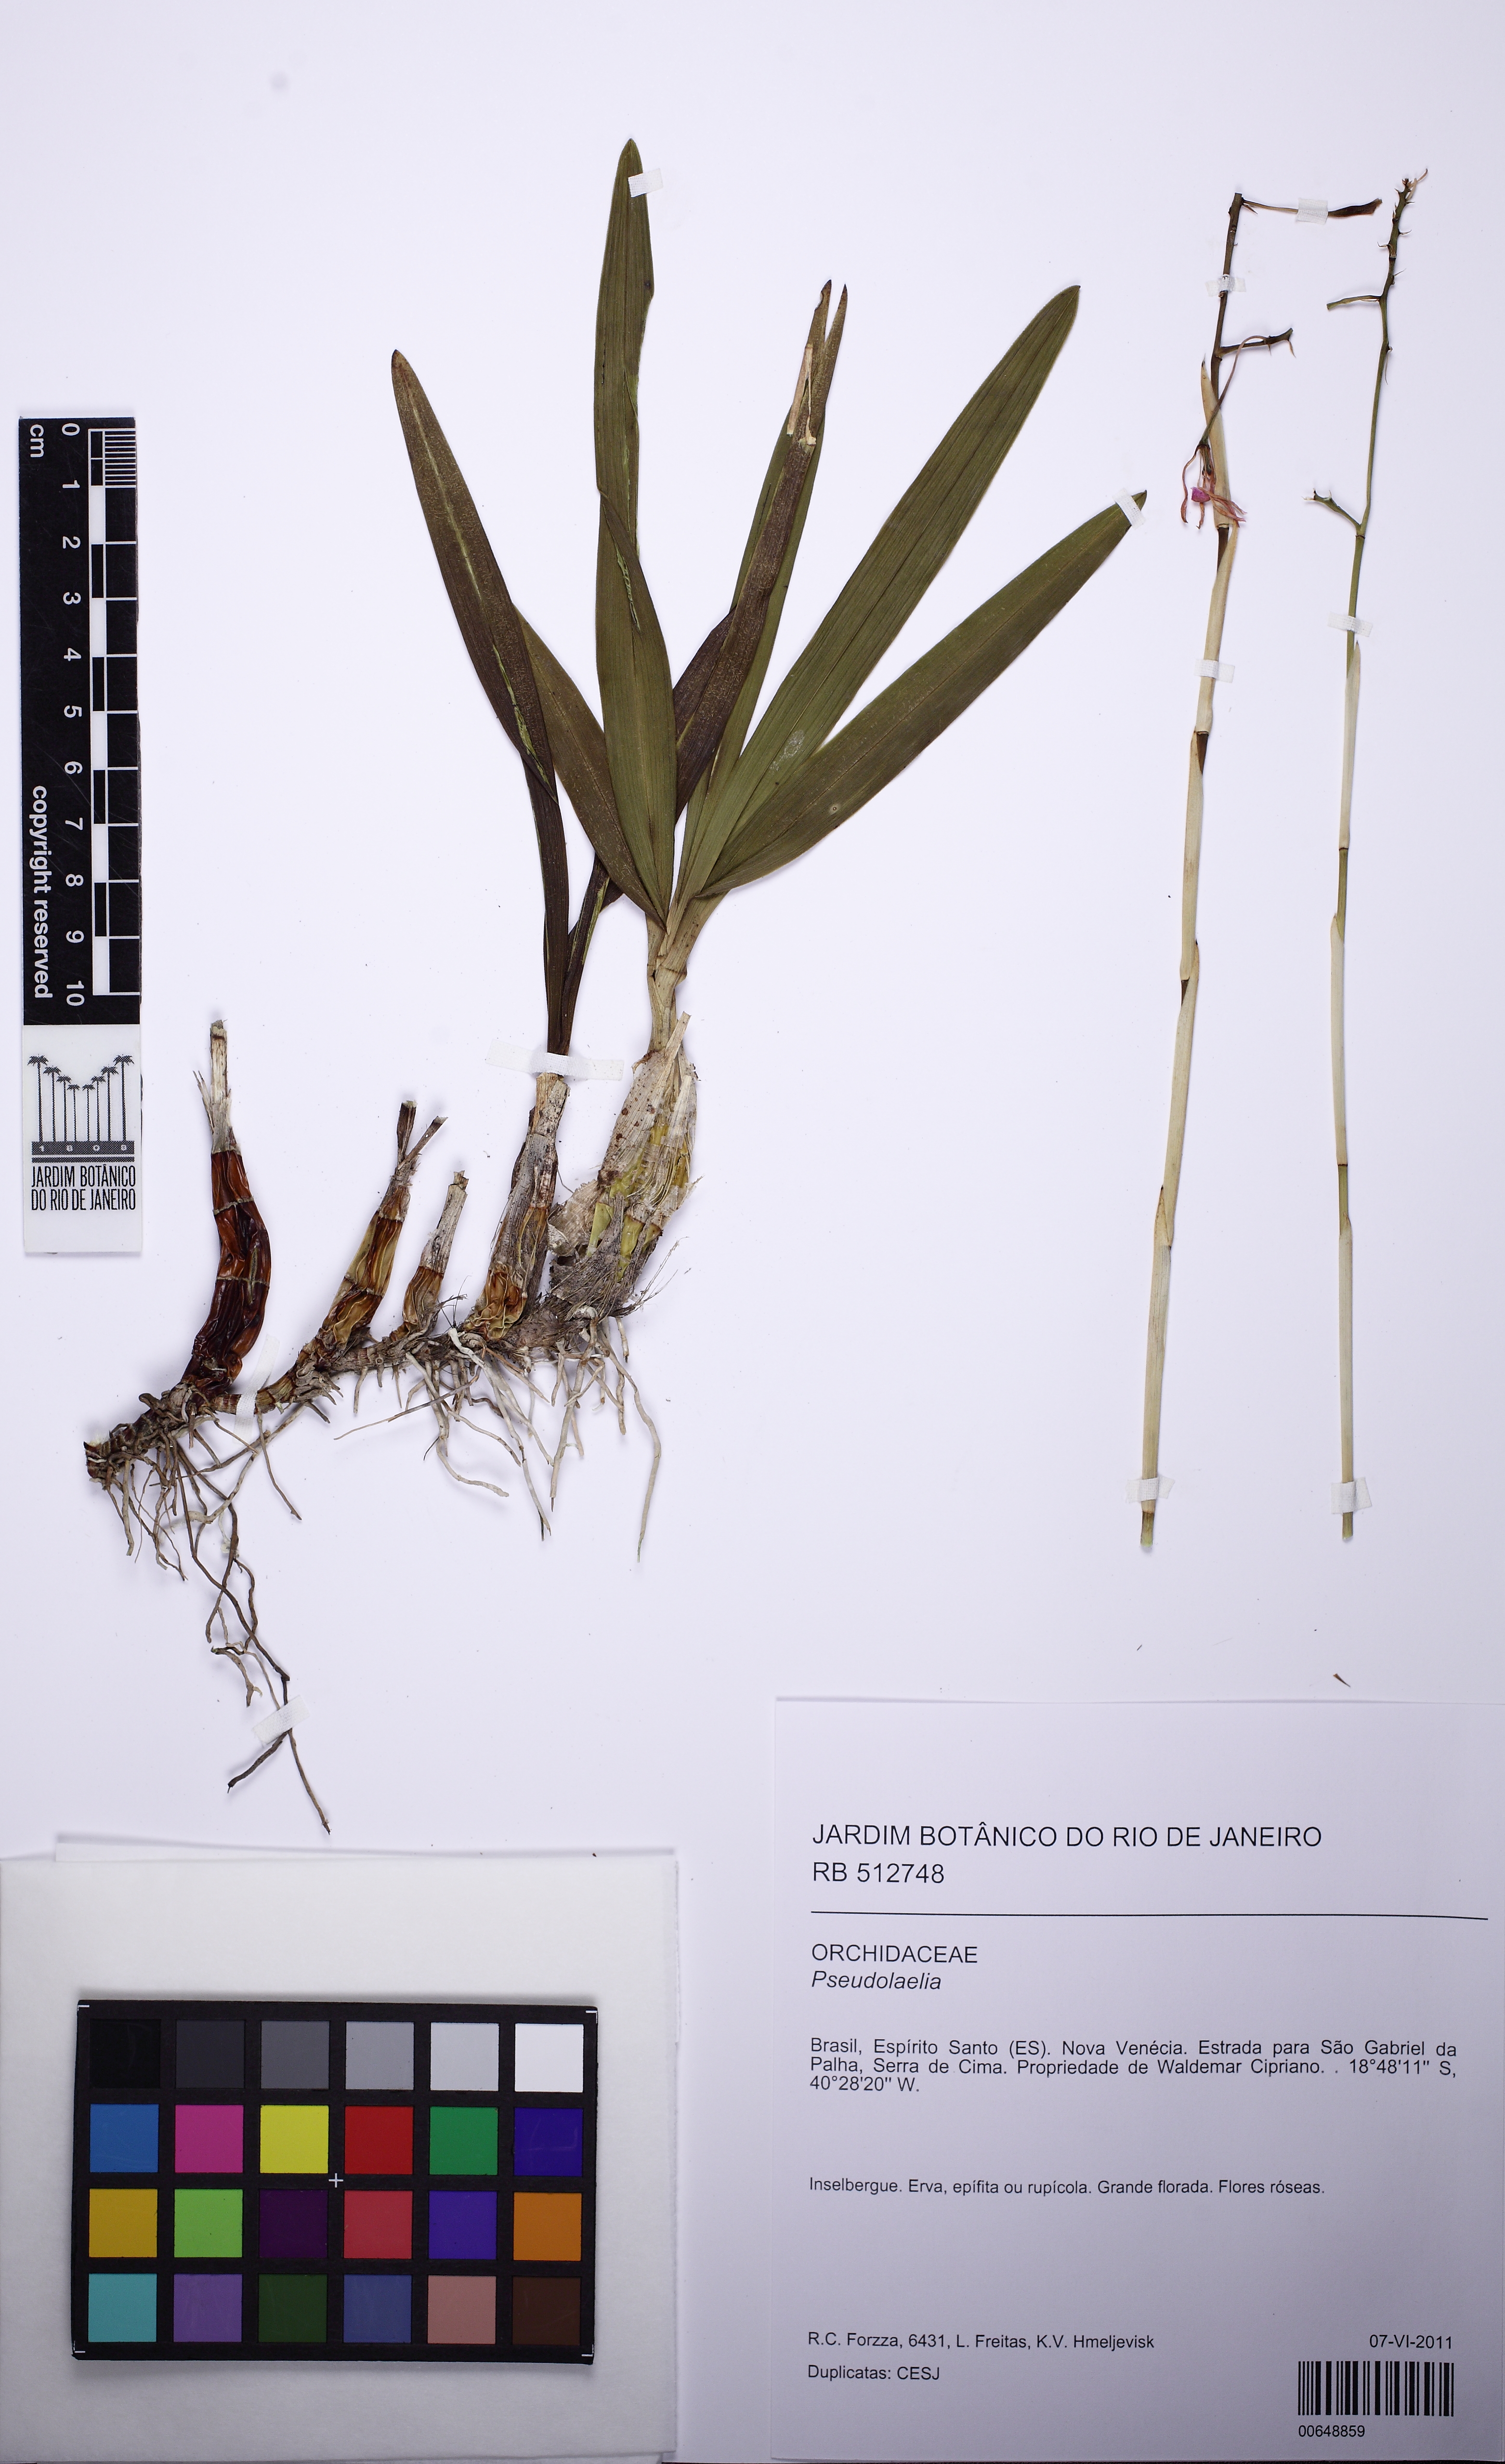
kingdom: Plantae
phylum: Tracheophyta
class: Liliopsida
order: Asparagales
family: Orchidaceae
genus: Pseudolaelia
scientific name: Pseudolaelia vellozicola
